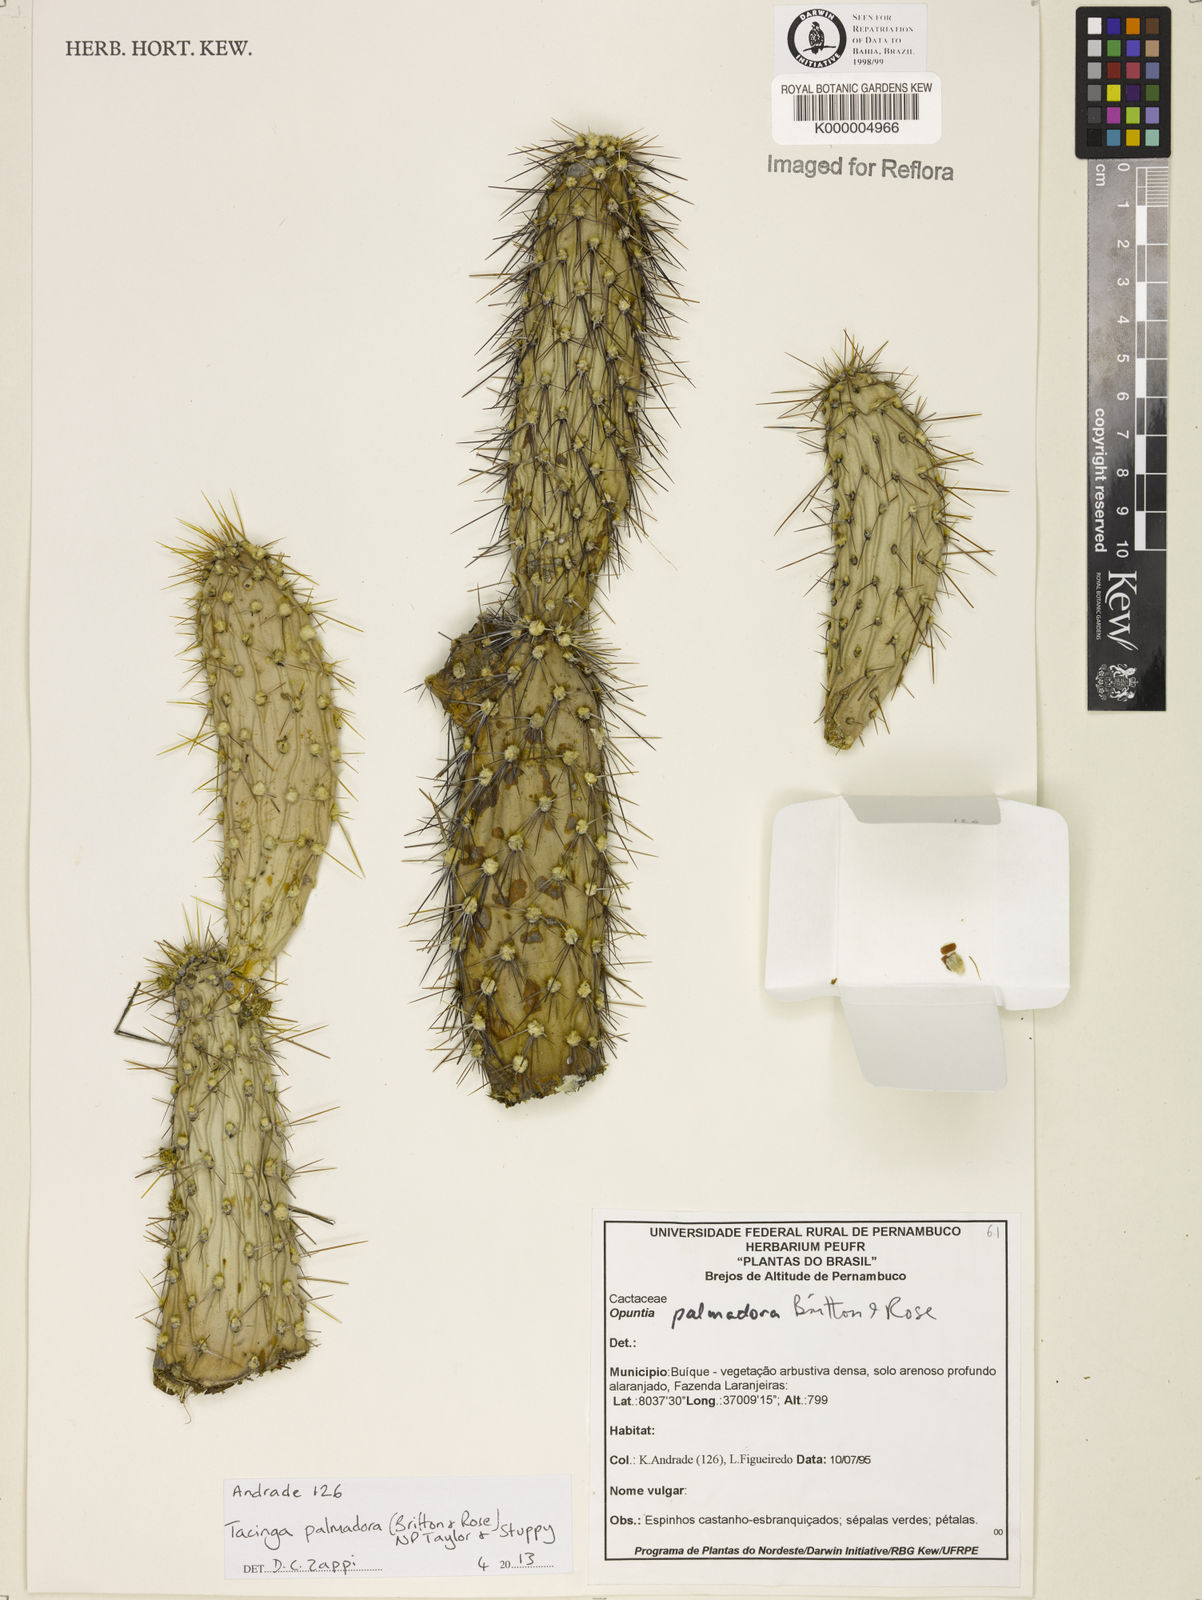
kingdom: Plantae
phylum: Tracheophyta
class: Magnoliopsida
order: Caryophyllales
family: Cactaceae
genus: Tacinga
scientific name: Tacinga palmadora
